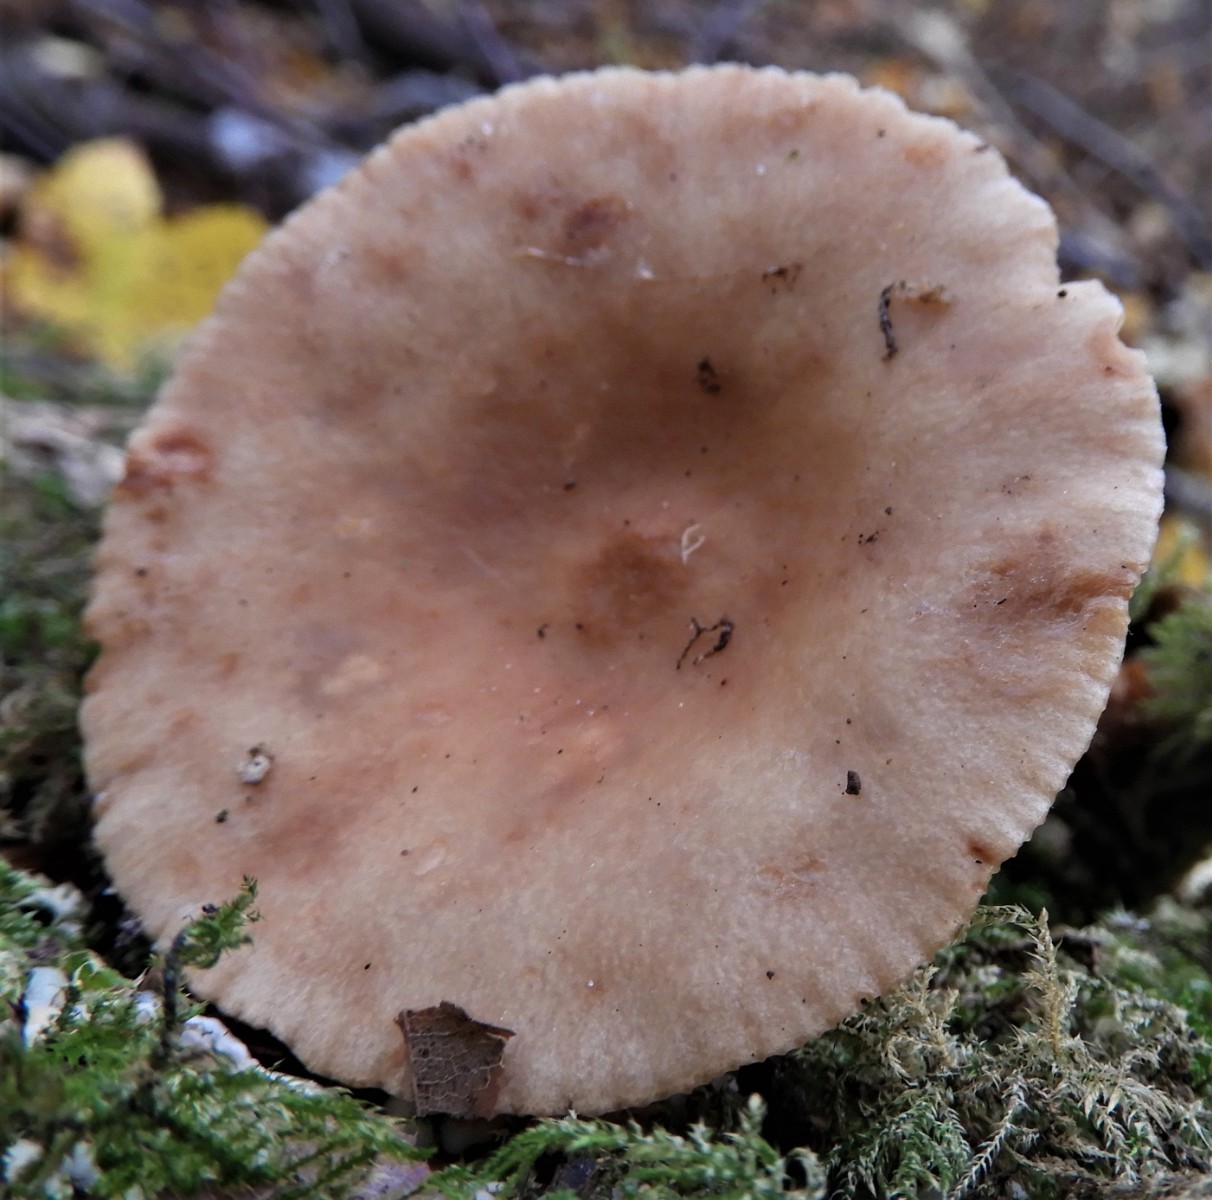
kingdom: Fungi
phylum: Basidiomycota
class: Agaricomycetes
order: Russulales
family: Russulaceae
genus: Lactarius
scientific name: Lactarius
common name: mælkehat
